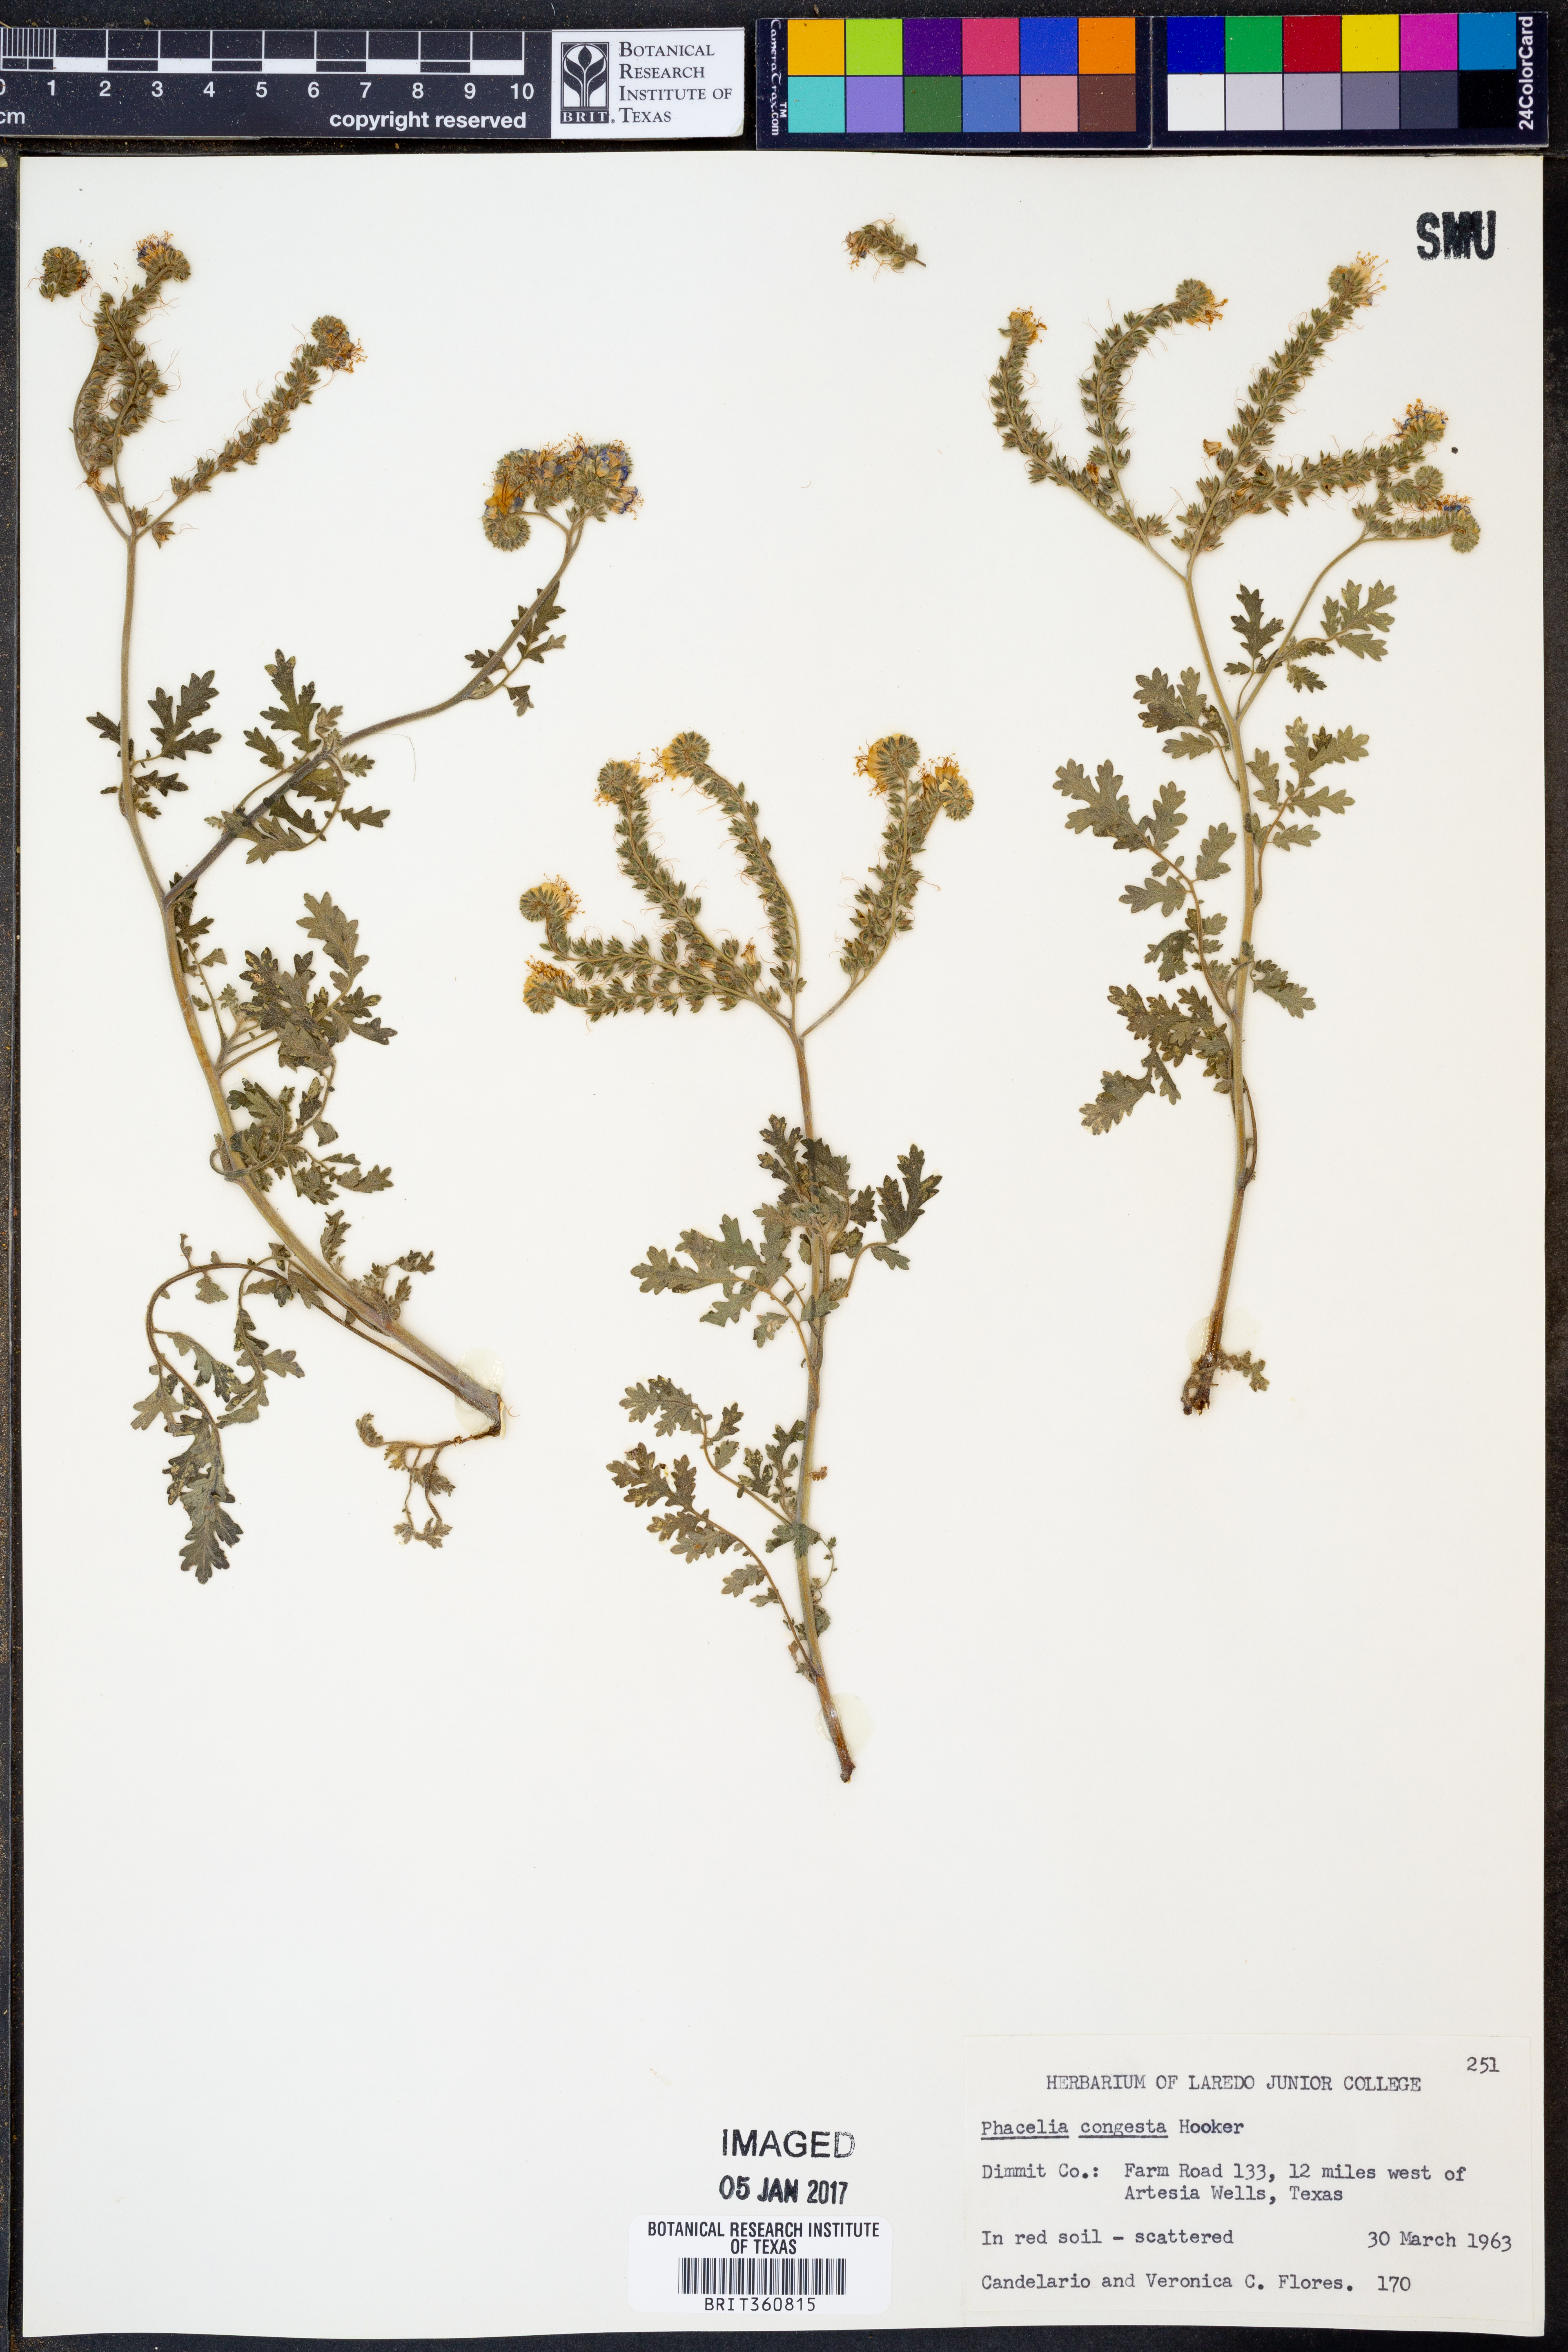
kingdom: Plantae
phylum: Tracheophyta
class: Magnoliopsida
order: Boraginales
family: Hydrophyllaceae
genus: Phacelia
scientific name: Phacelia congesta
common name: Blue curls
